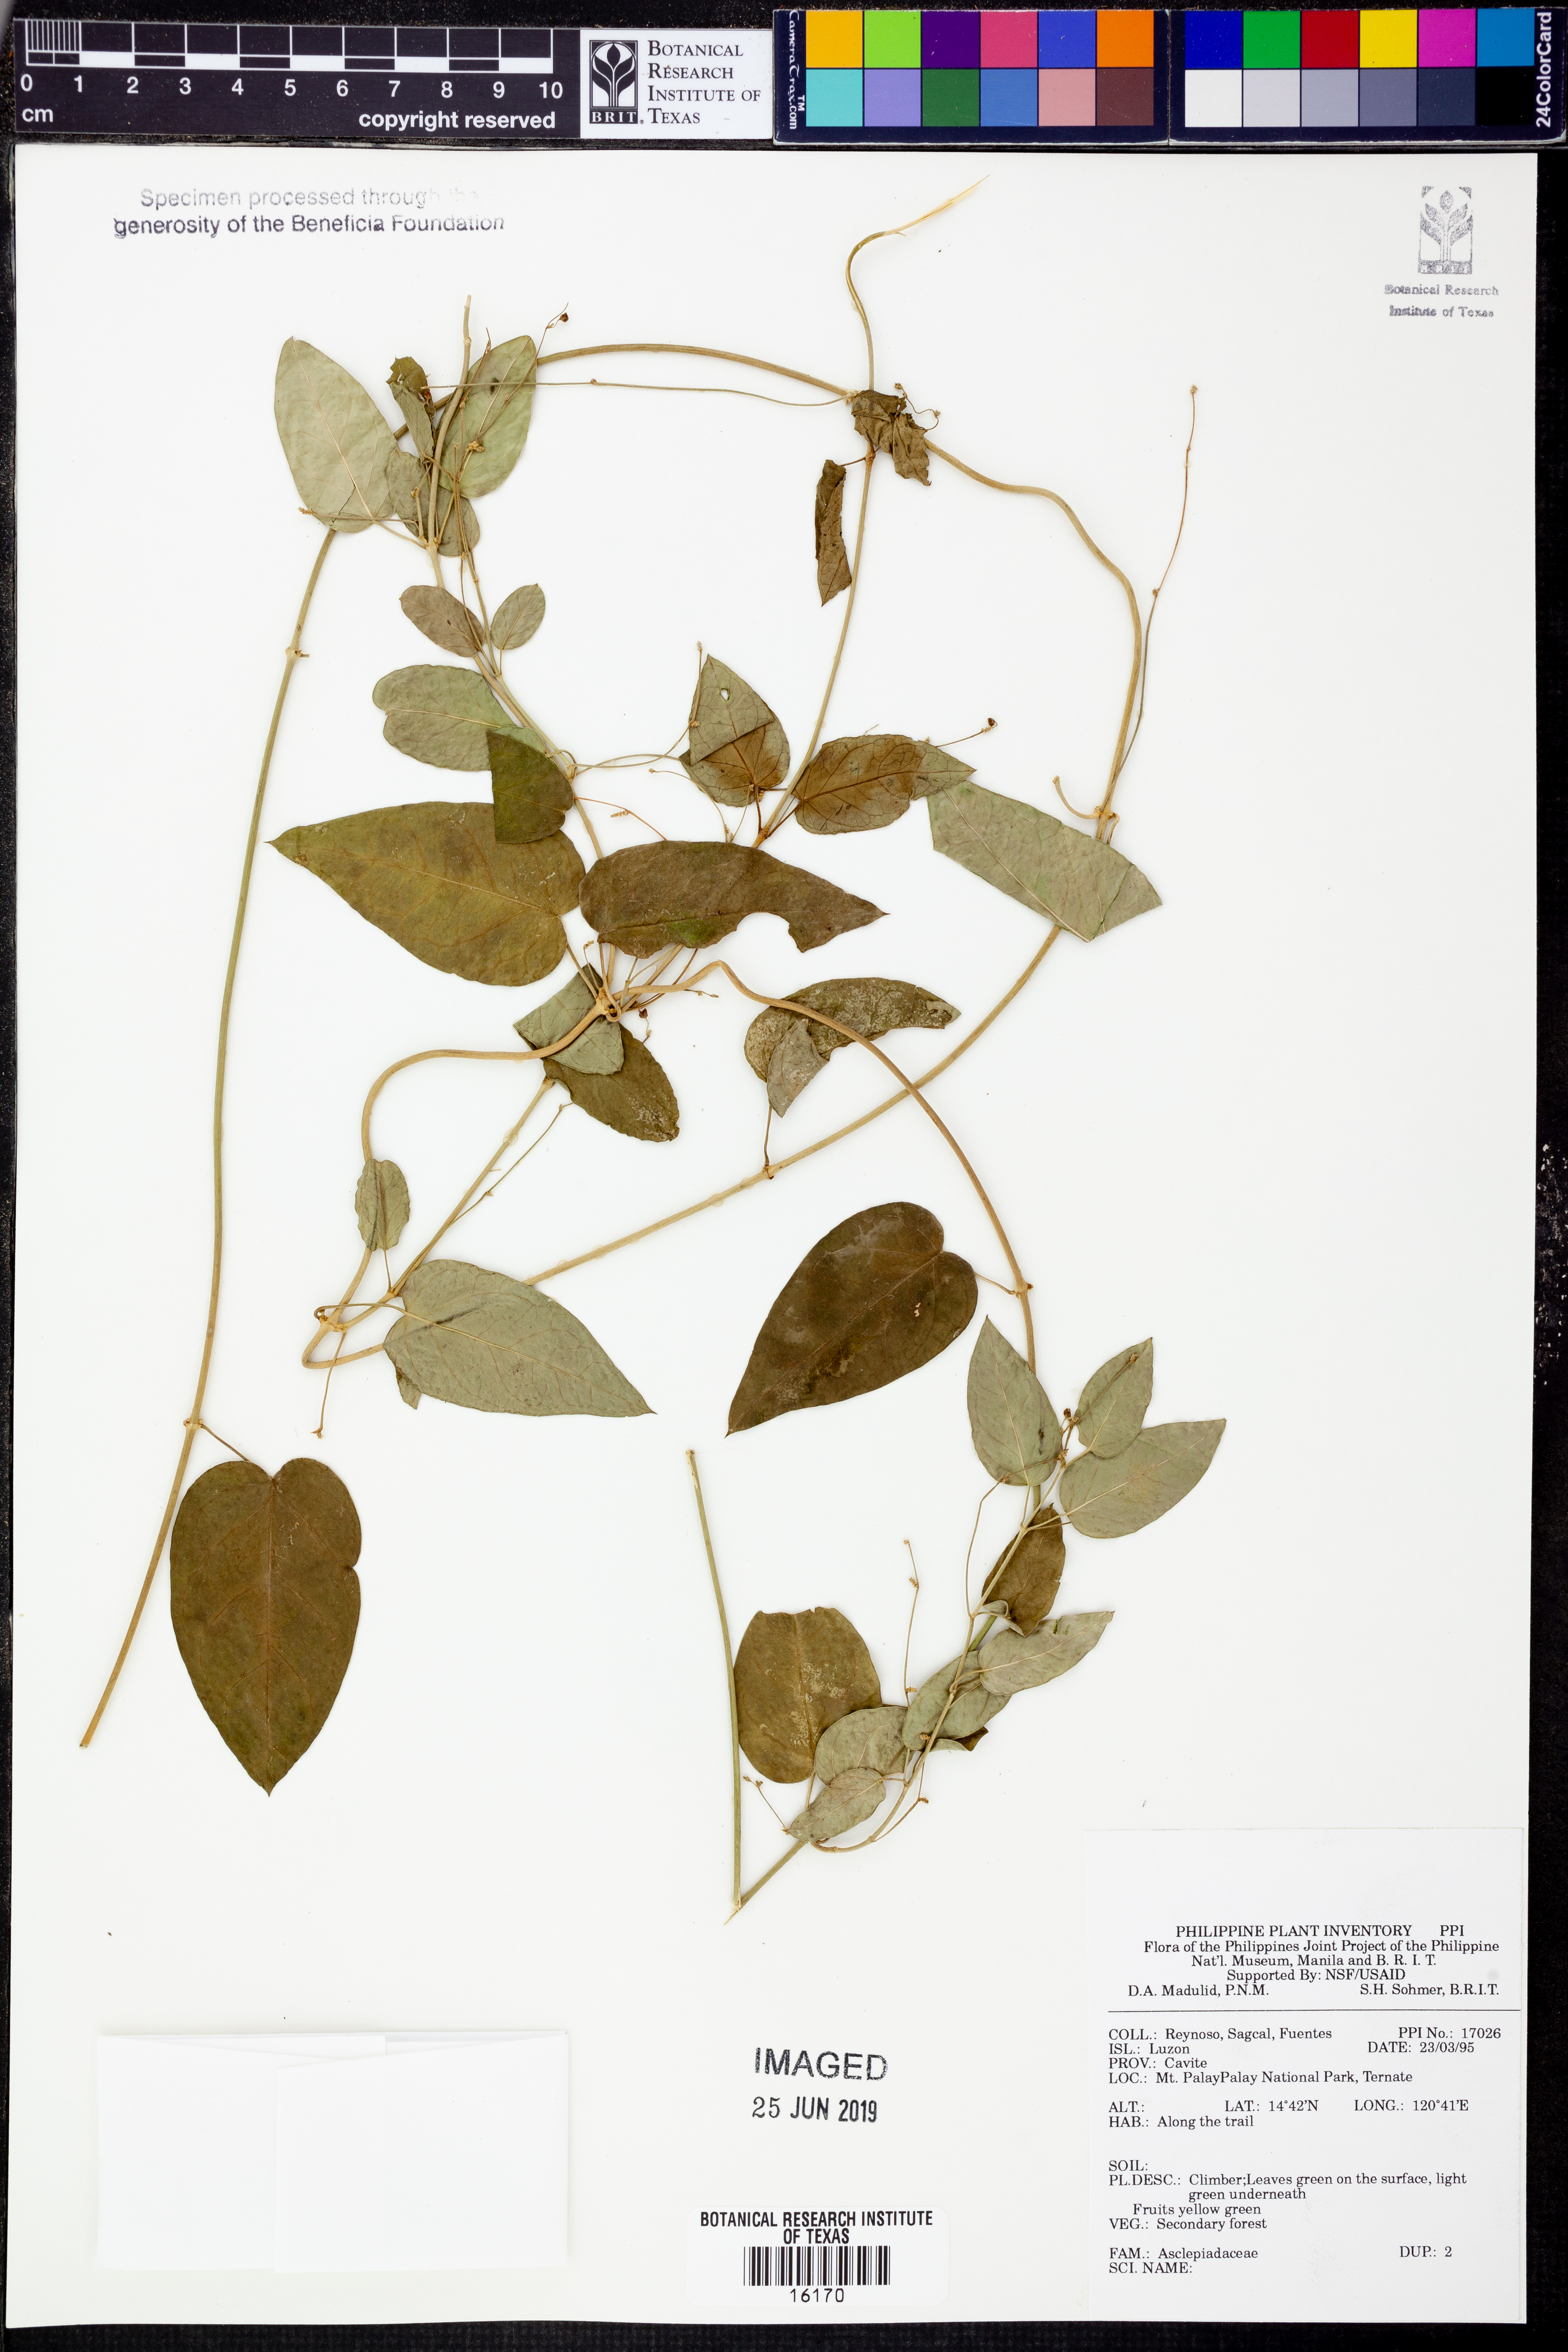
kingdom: Plantae
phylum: Tracheophyta
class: Magnoliopsida
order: Gentianales
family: Apocynaceae
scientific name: Apocynaceae
